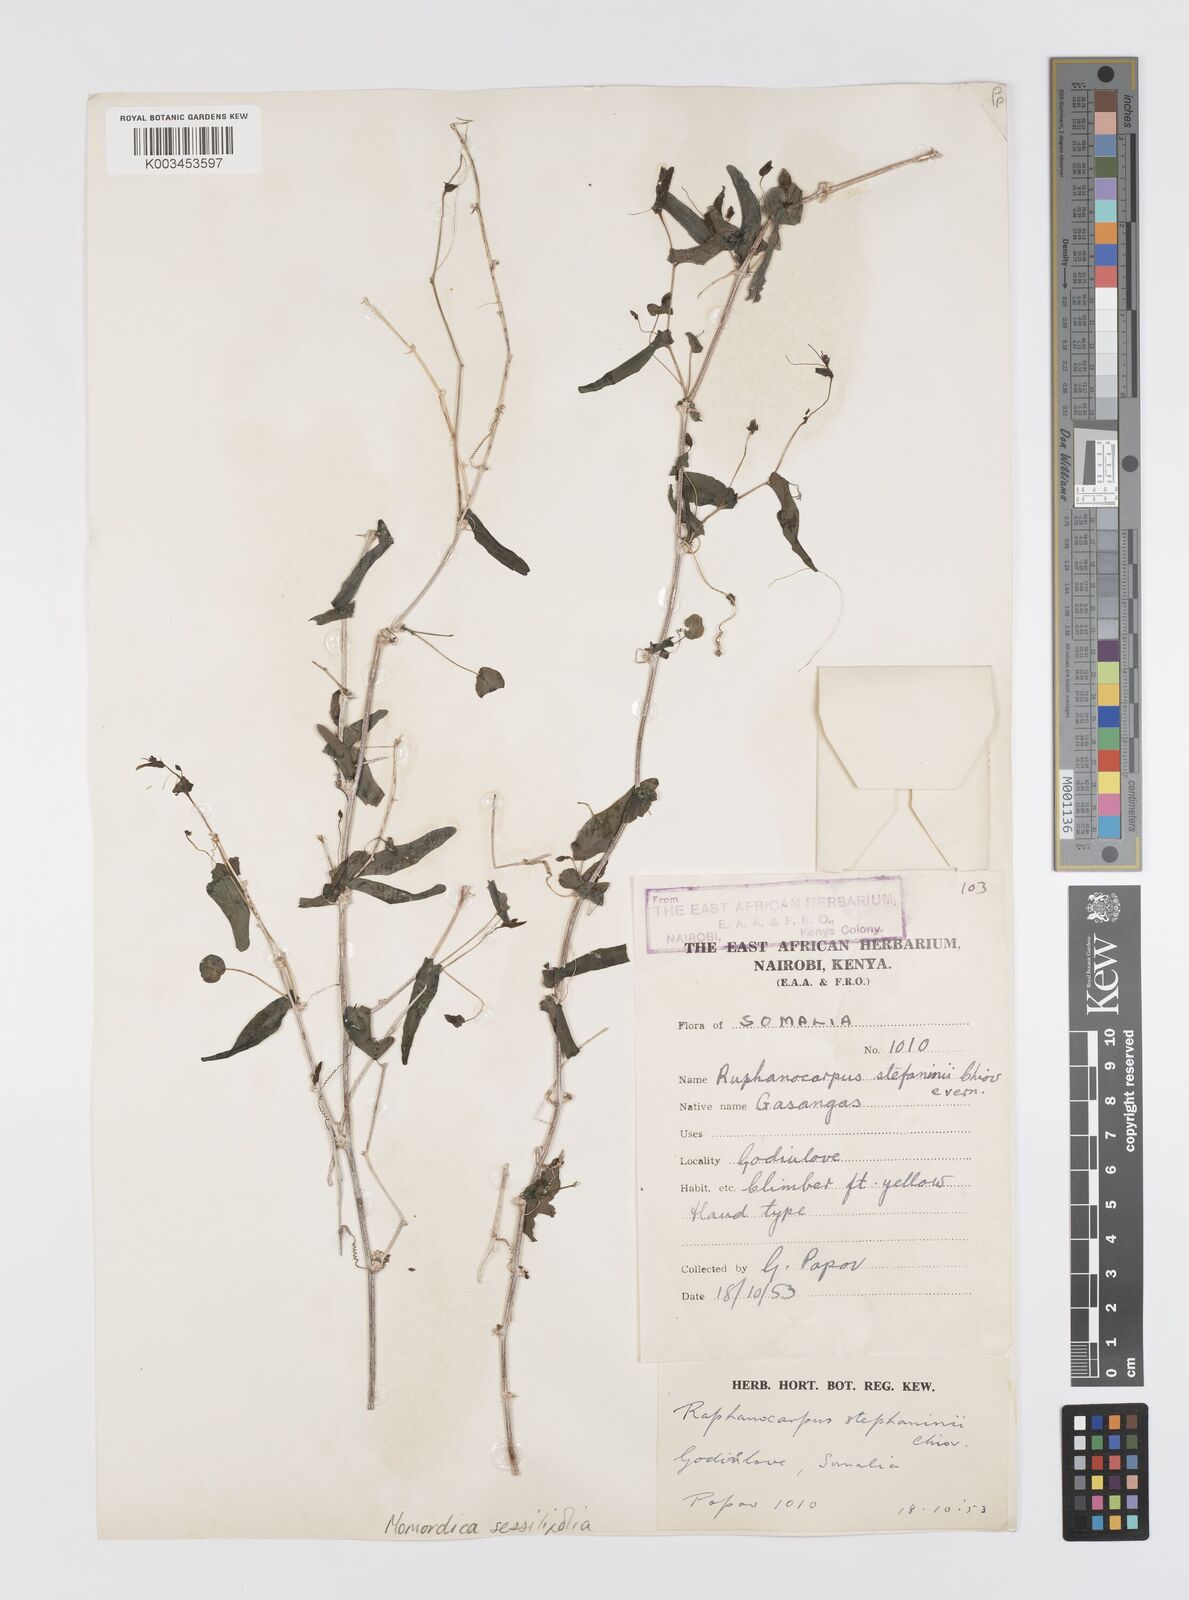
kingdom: Plantae
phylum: Tracheophyta
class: Magnoliopsida
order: Cucurbitales
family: Cucurbitaceae
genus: Momordica
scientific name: Momordica sessilifolia
